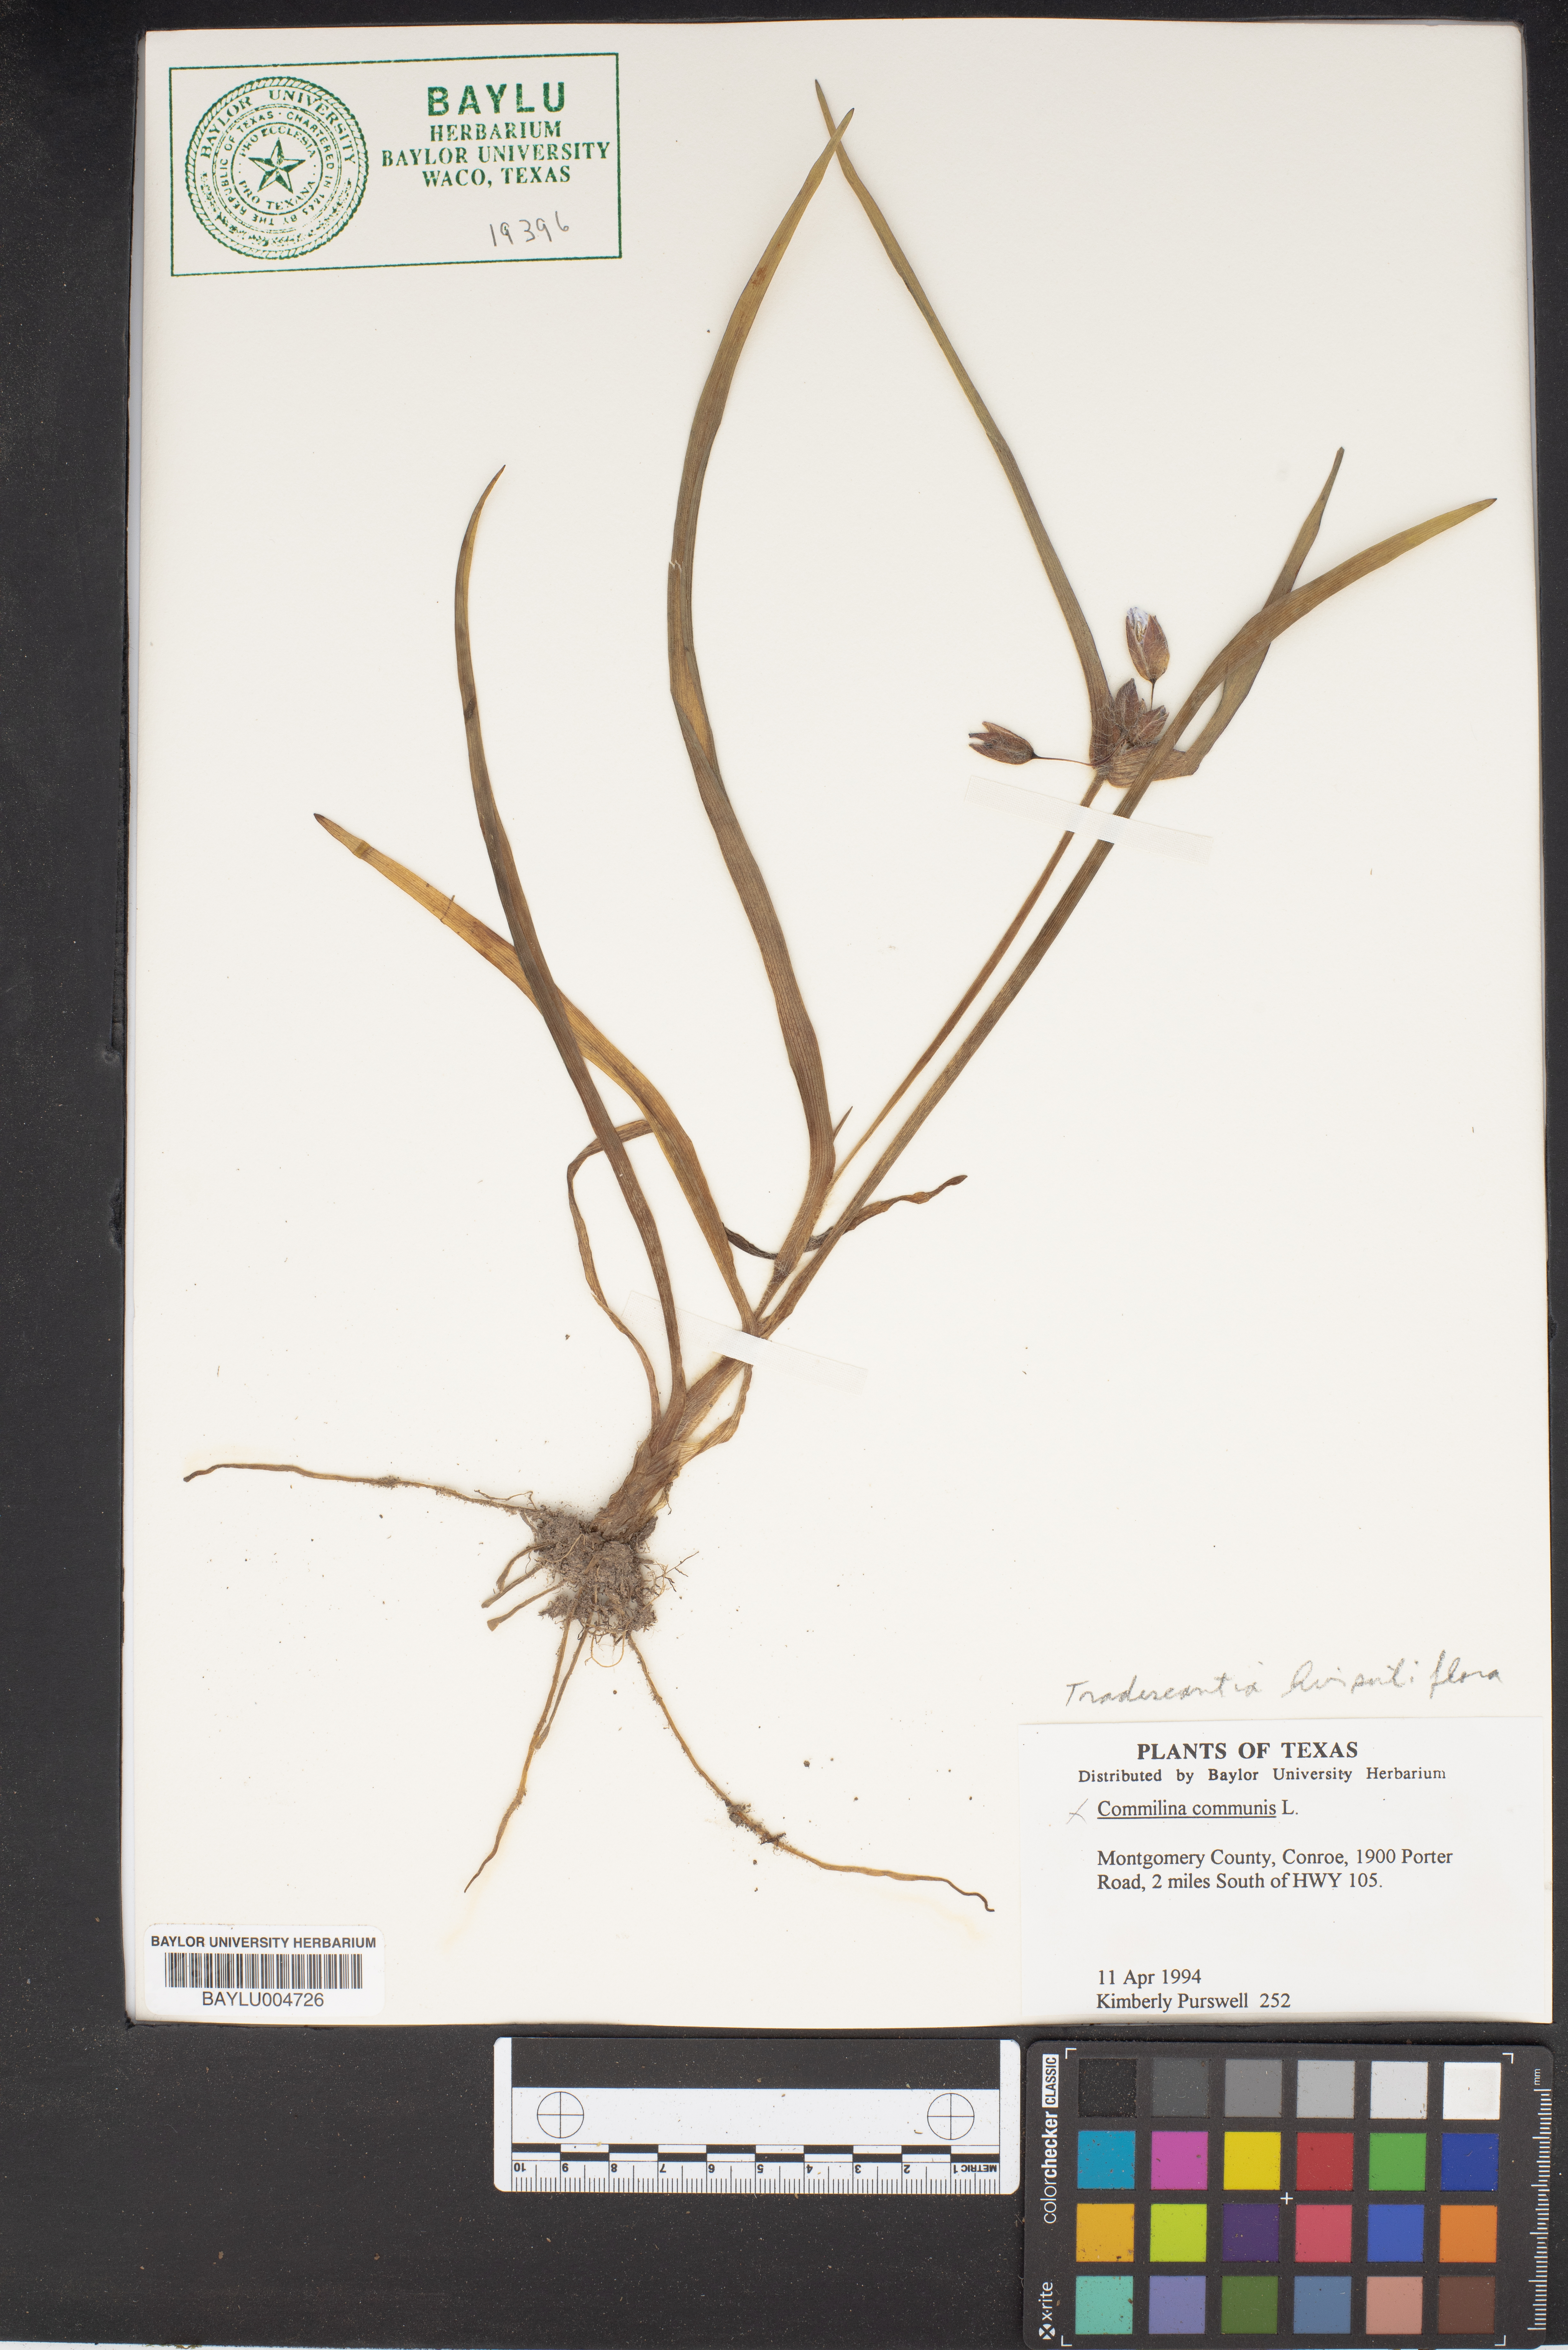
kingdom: Plantae
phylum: Tracheophyta
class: Liliopsida
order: Commelinales
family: Commelinaceae
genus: Tradescantia
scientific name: Tradescantia hirsutiflora
